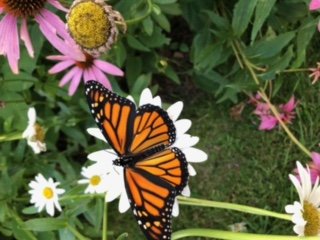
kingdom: Animalia
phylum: Arthropoda
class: Insecta
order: Lepidoptera
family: Nymphalidae
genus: Danaus
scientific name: Danaus plexippus
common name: Monarch
